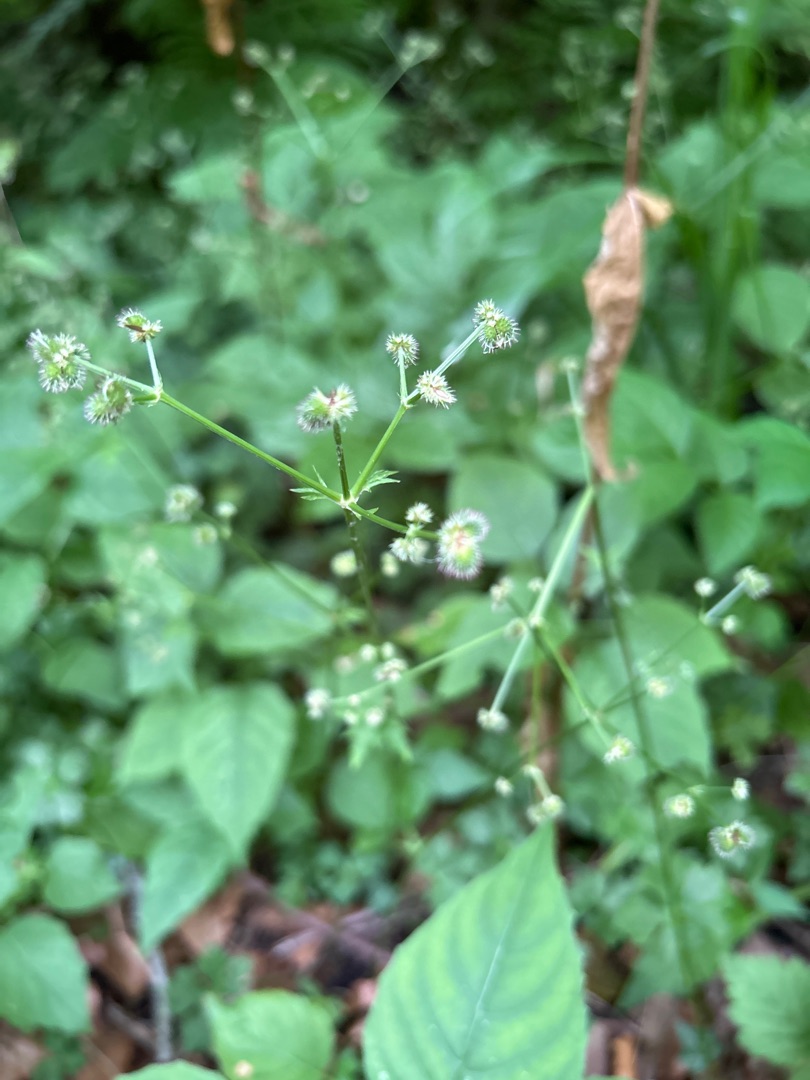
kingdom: Plantae
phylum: Tracheophyta
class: Magnoliopsida
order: Apiales
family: Apiaceae
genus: Sanicula
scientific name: Sanicula europaea
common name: Sanikel
